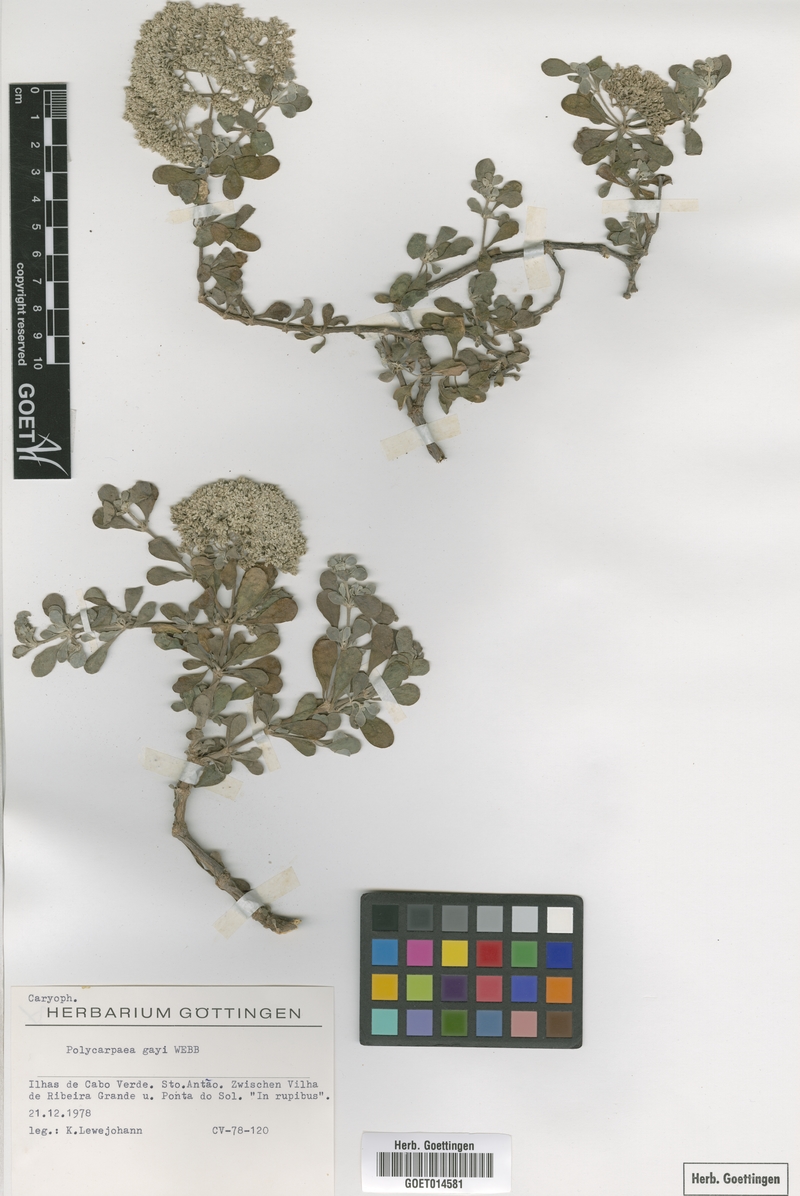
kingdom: Plantae
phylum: Tracheophyta
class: Magnoliopsida
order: Caryophyllales
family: Caryophyllaceae
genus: Polycarpaea
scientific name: Polycarpaea gayi
